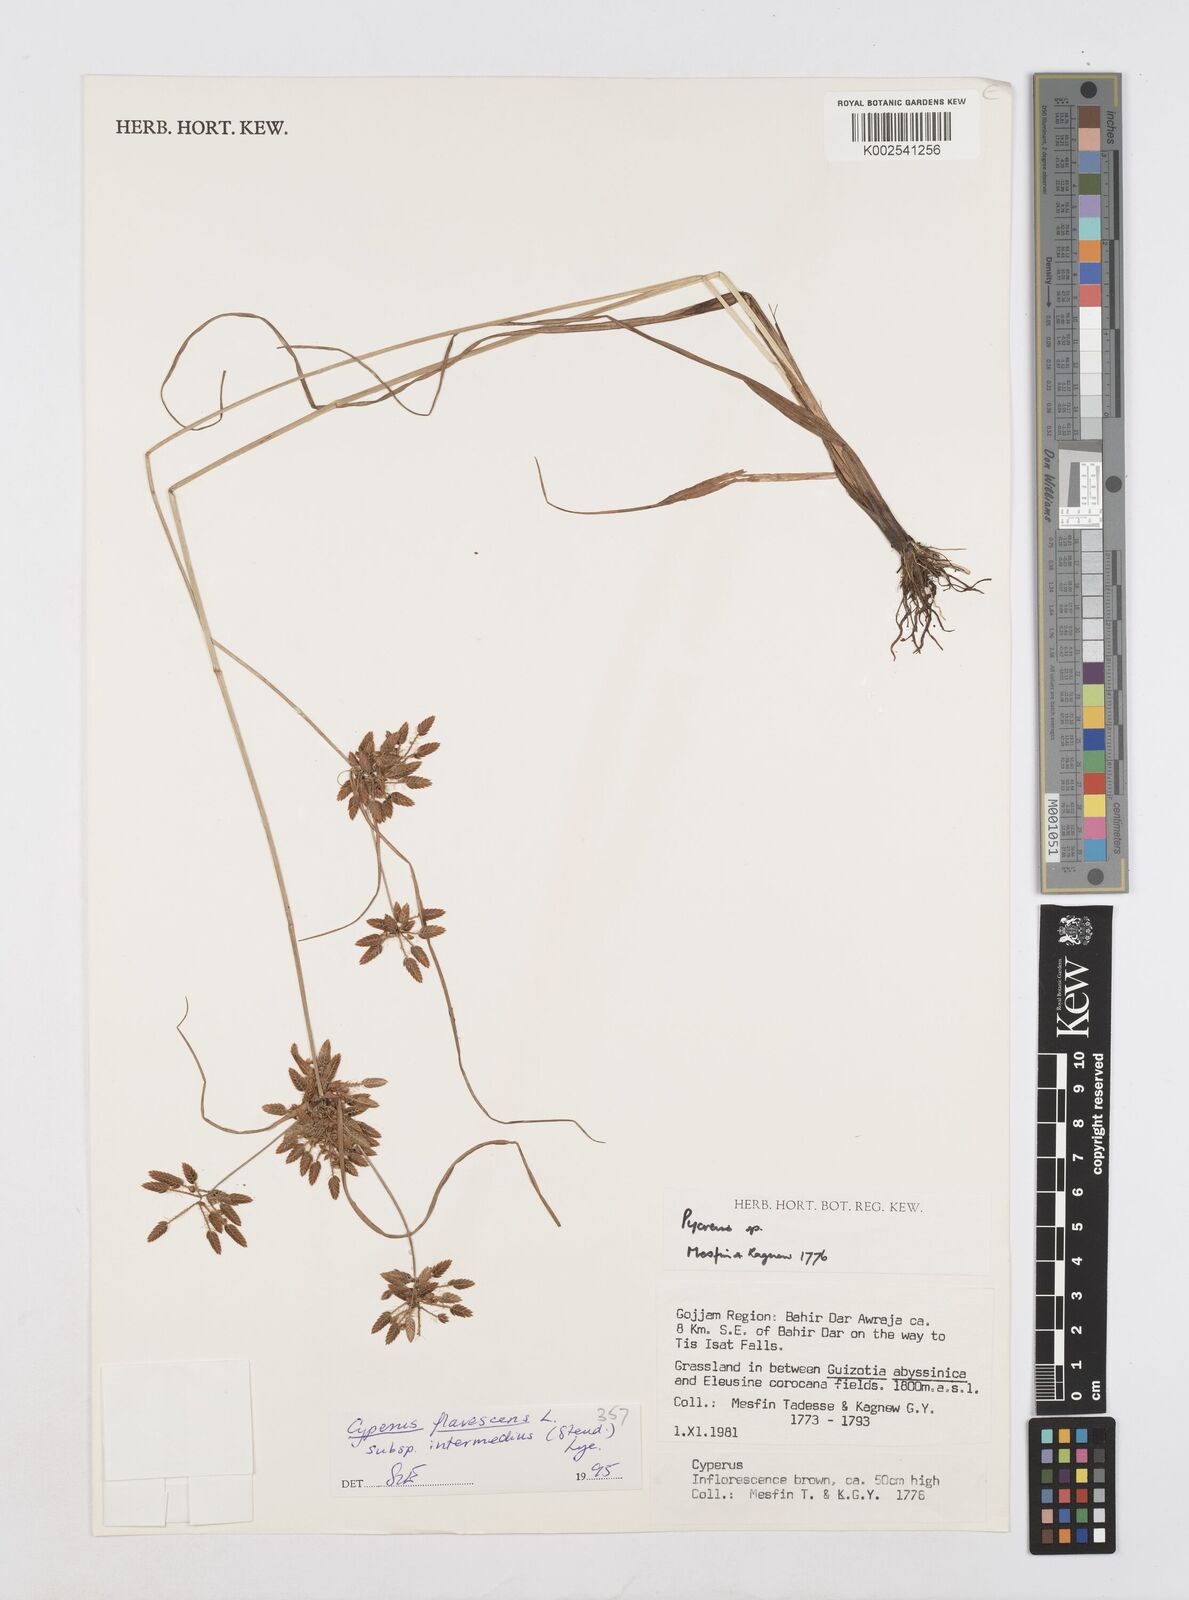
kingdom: Plantae
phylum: Tracheophyta
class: Liliopsida
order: Poales
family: Cyperaceae
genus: Cyperus
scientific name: Cyperus flavescens
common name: Yellow galingale
